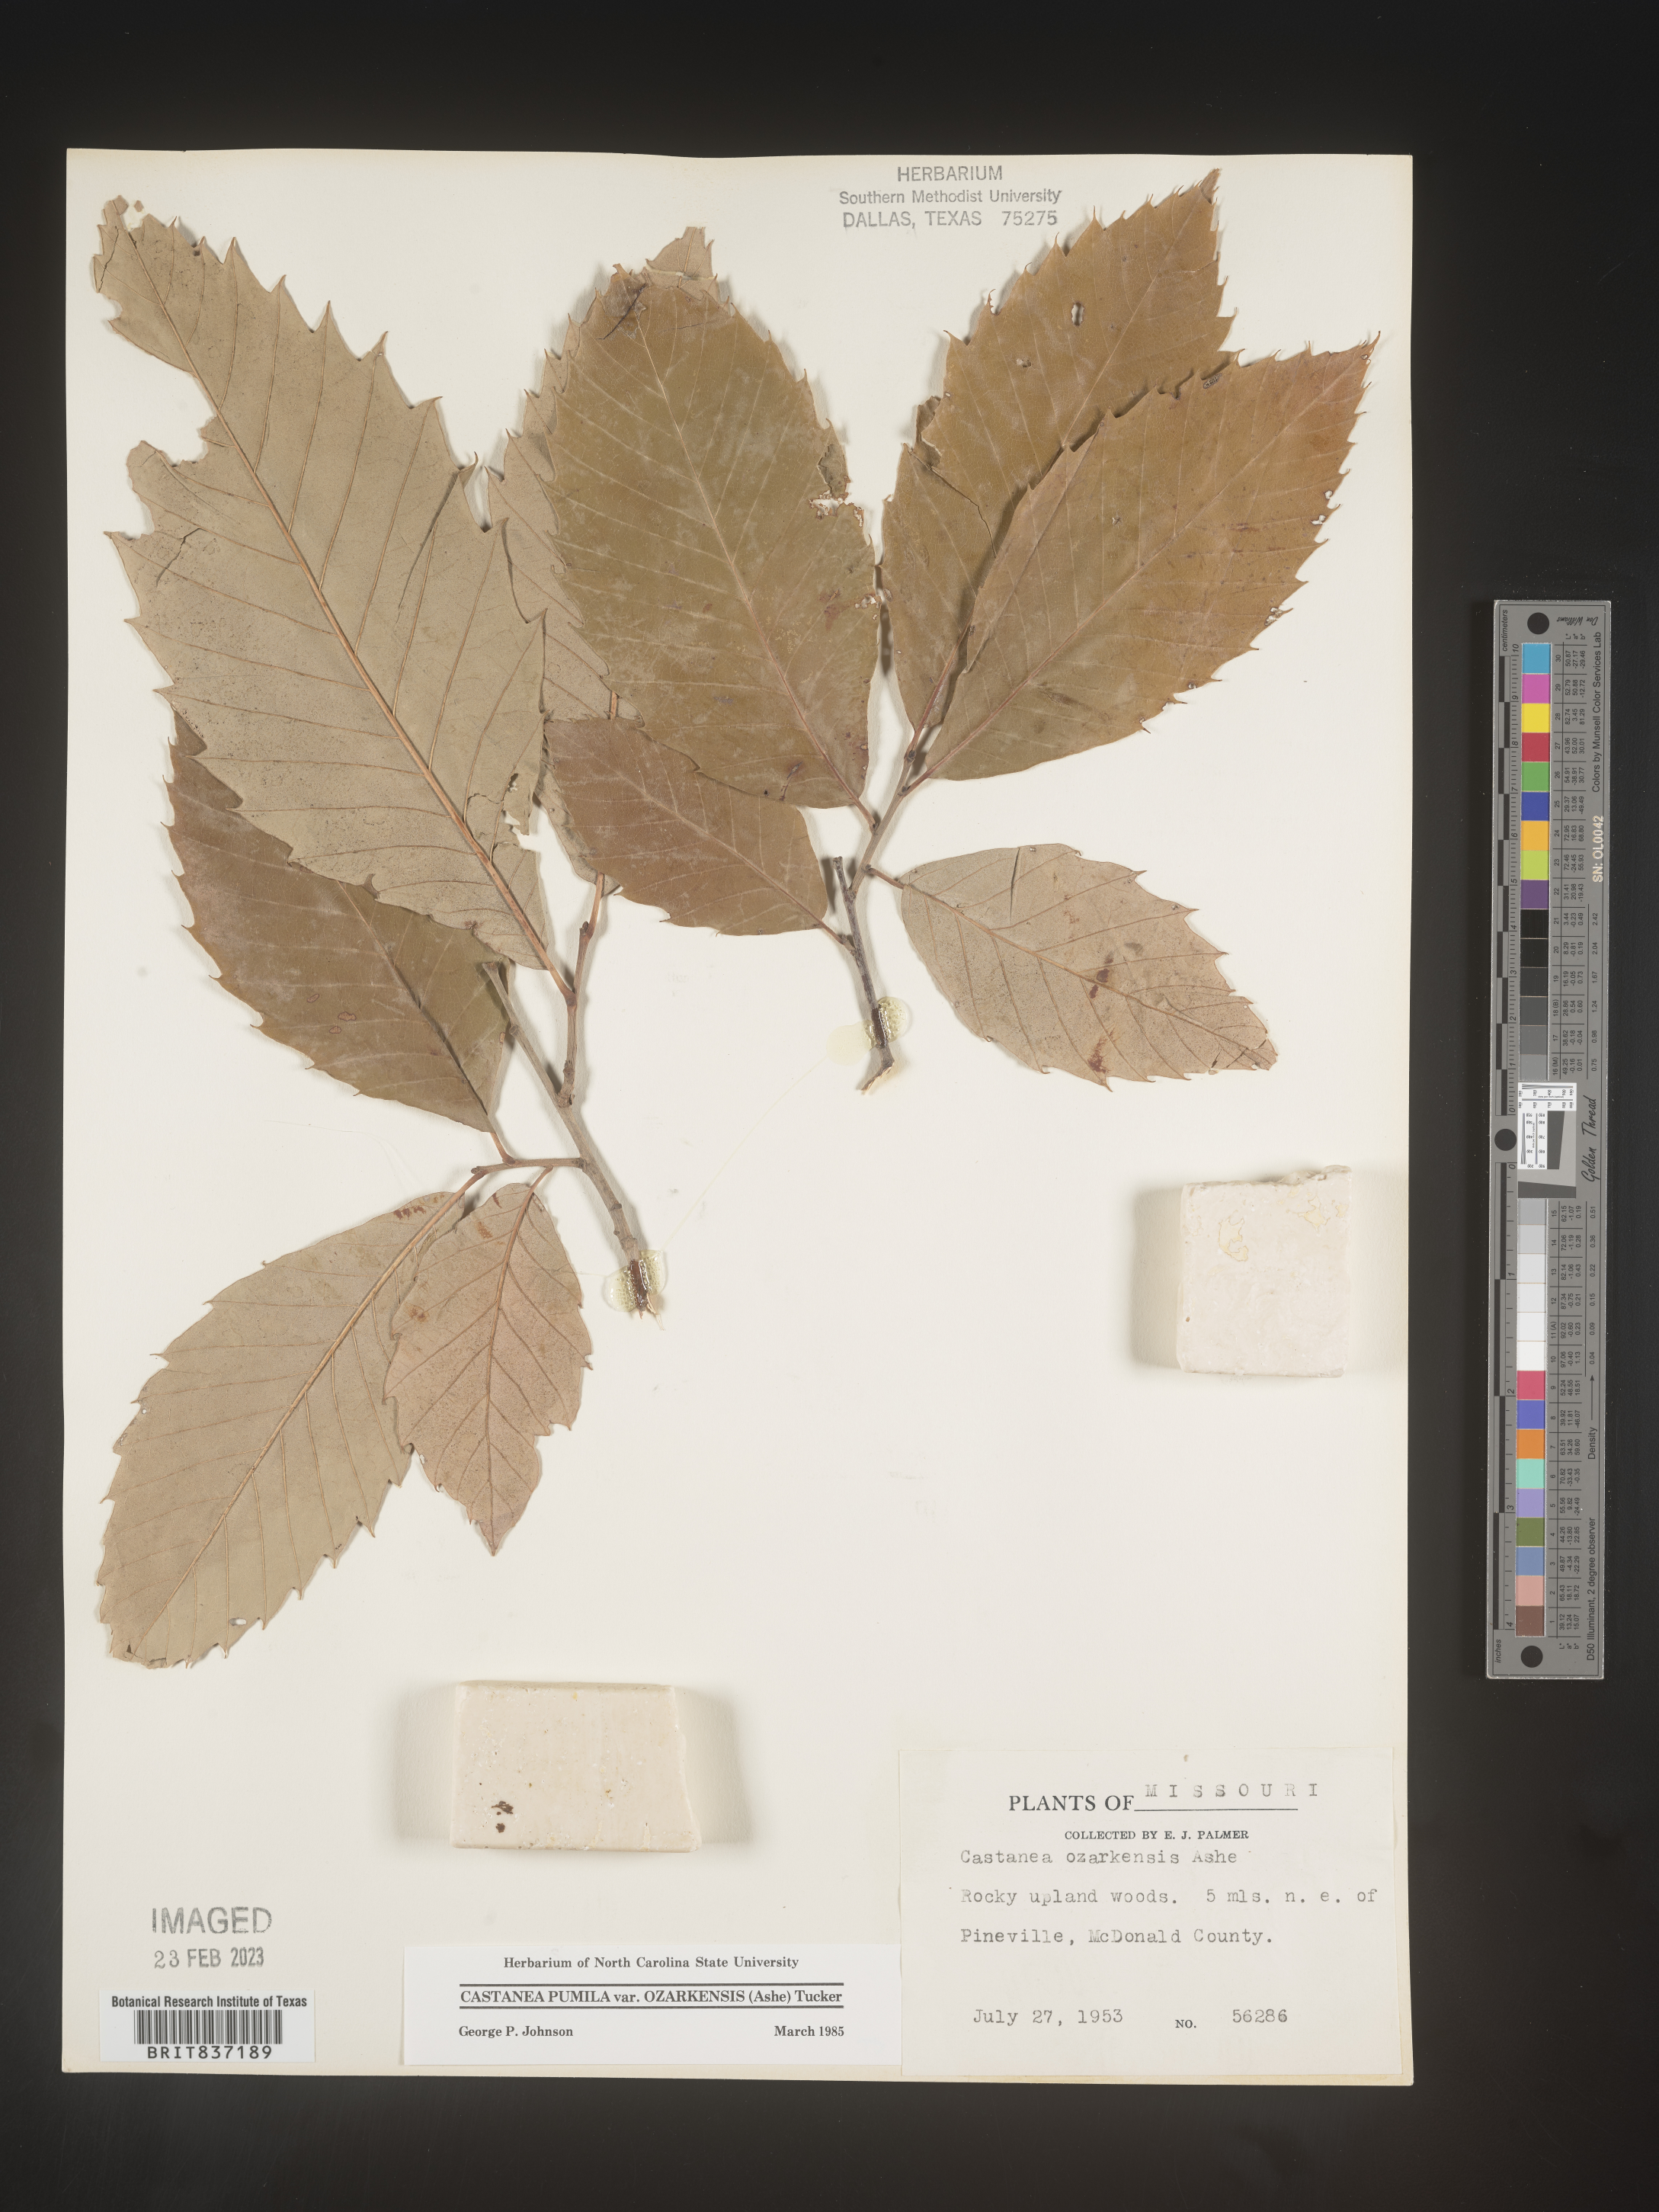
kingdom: Plantae
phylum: Tracheophyta
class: Magnoliopsida
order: Fagales
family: Fagaceae
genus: Castanea
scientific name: Castanea ozarkensis
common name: Ozark chinkapin
